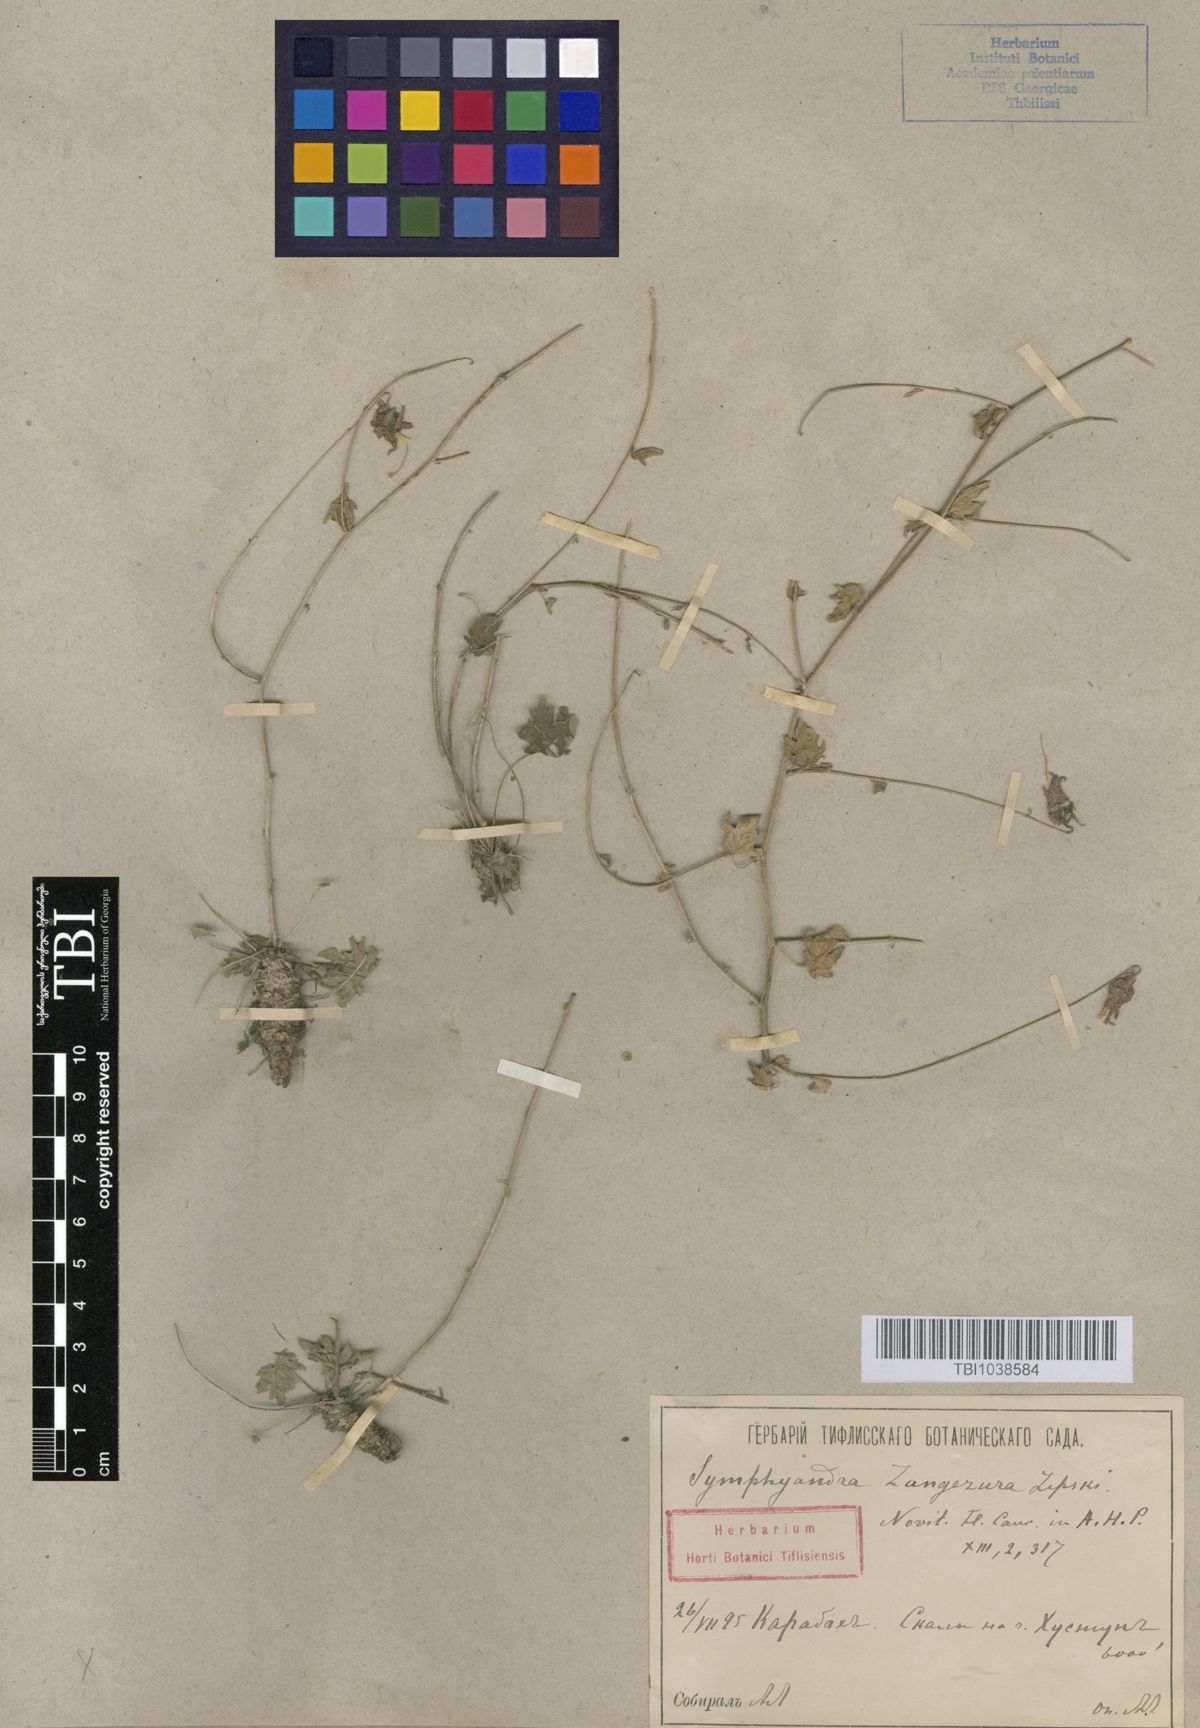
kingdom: Plantae
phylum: Tracheophyta
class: Magnoliopsida
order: Asterales
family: Campanulaceae
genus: Campanula
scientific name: Campanula zangezura
